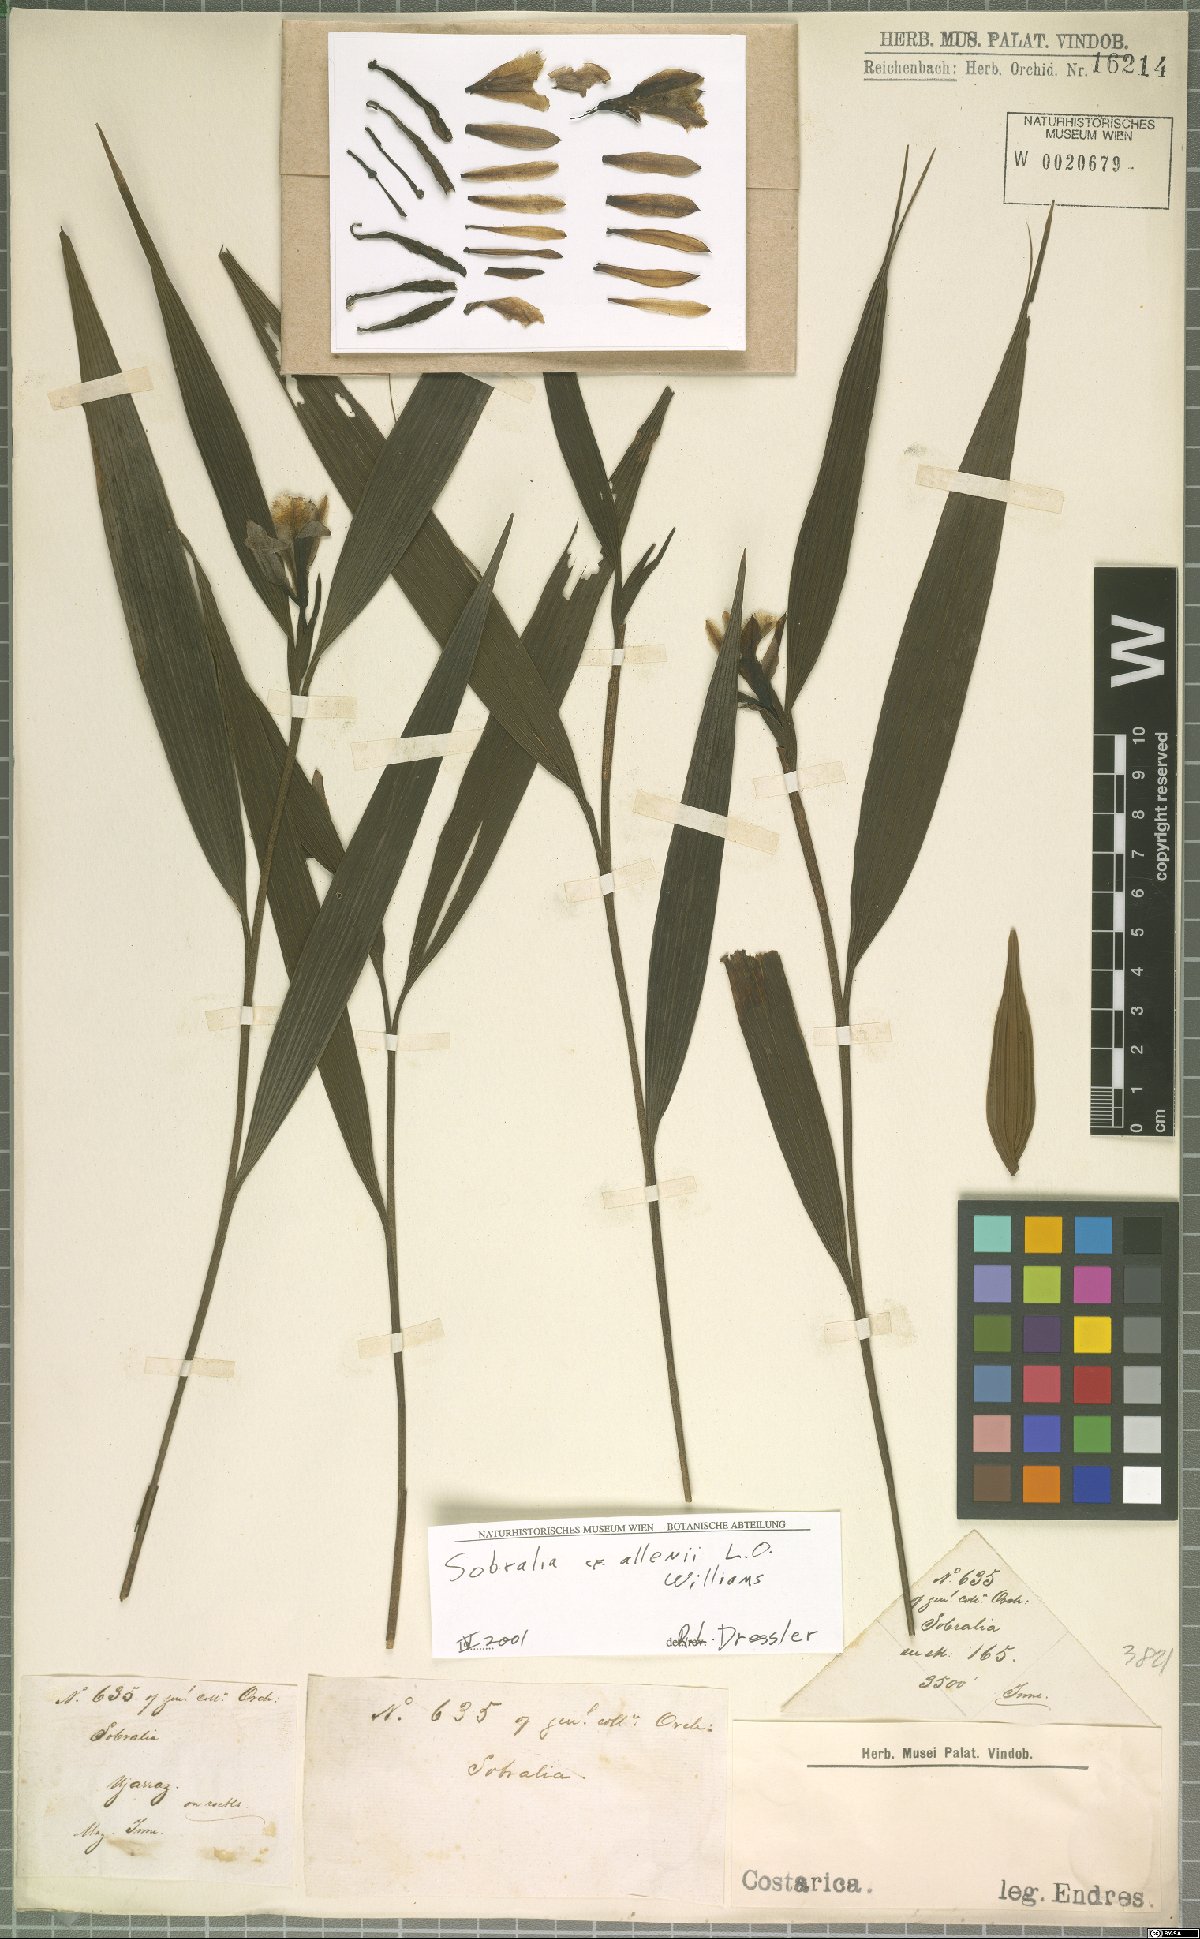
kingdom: Plantae
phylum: Tracheophyta
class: Liliopsida
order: Asparagales
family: Orchidaceae
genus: Sobralia
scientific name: Sobralia allenii
